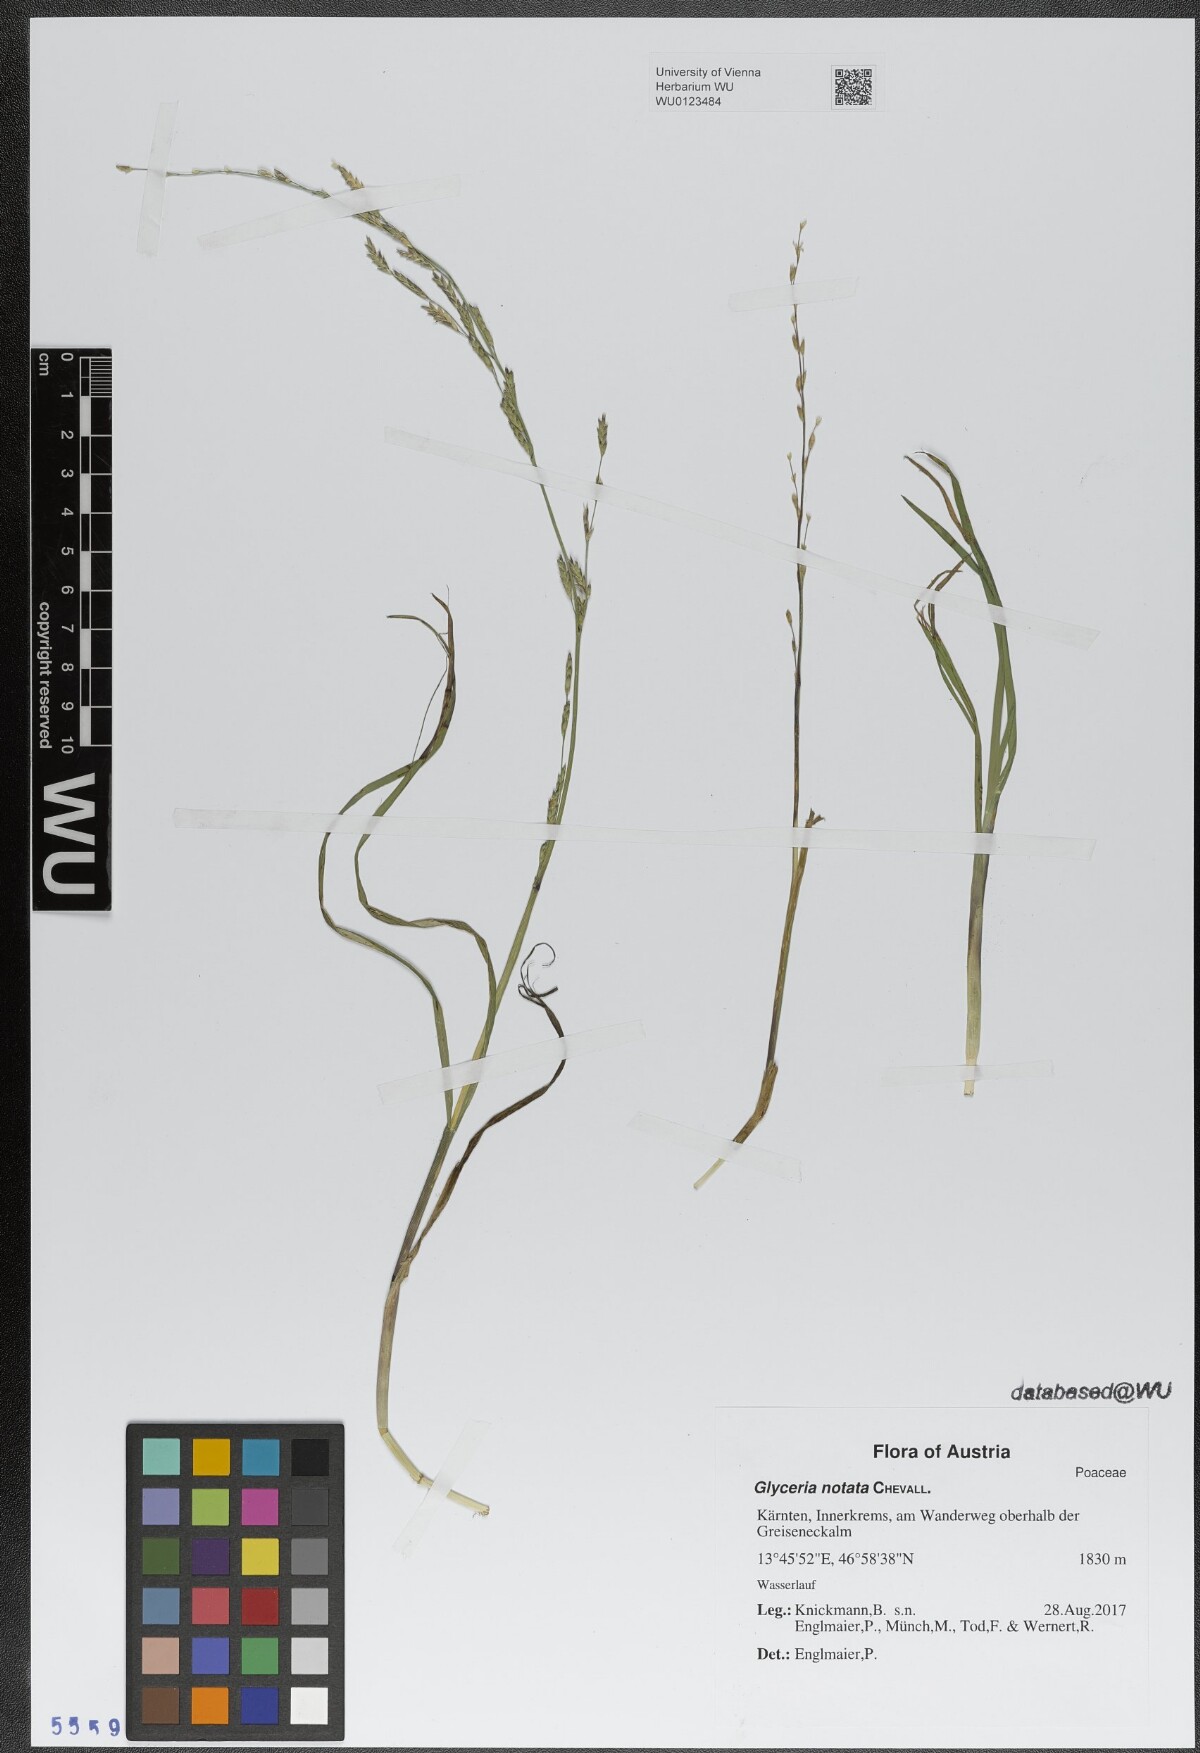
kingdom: Plantae
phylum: Tracheophyta
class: Liliopsida
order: Poales
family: Poaceae
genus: Glyceria
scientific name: Glyceria notata
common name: Plicate sweet-grass
